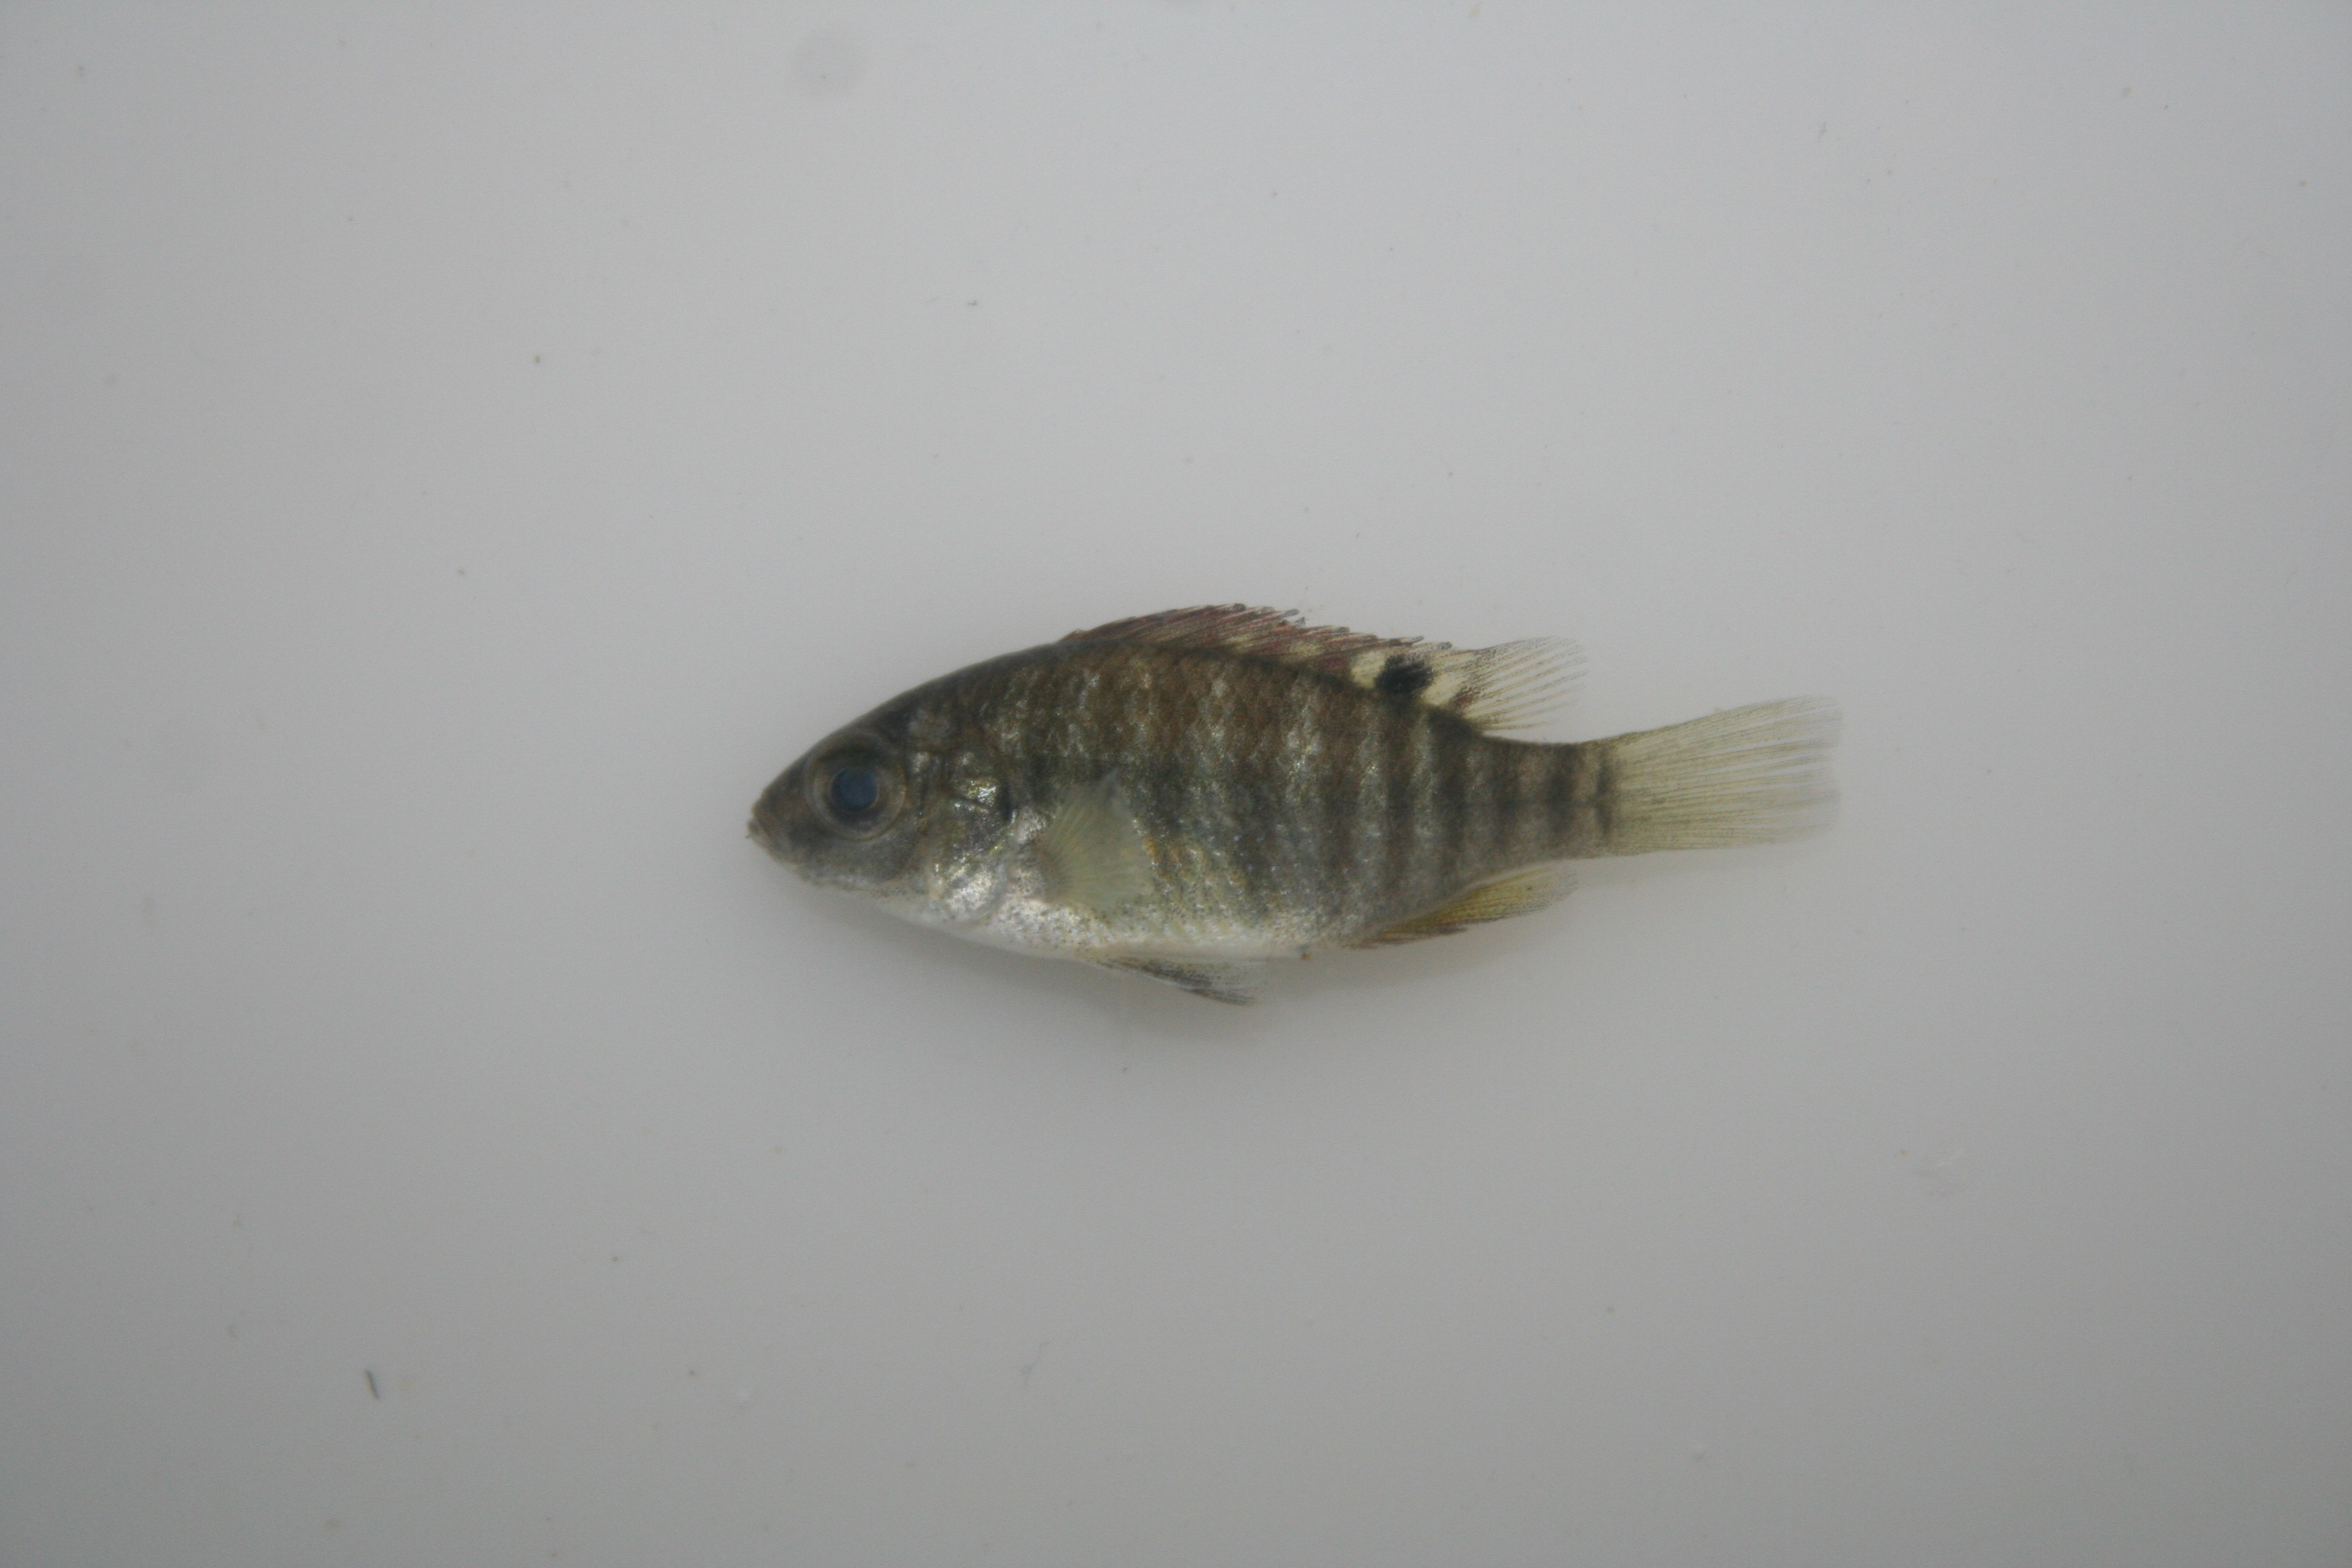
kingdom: Animalia
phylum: Chordata
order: Perciformes
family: Cichlidae
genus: Tilapia
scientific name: Tilapia sparrmanii
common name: Banded tilapia
